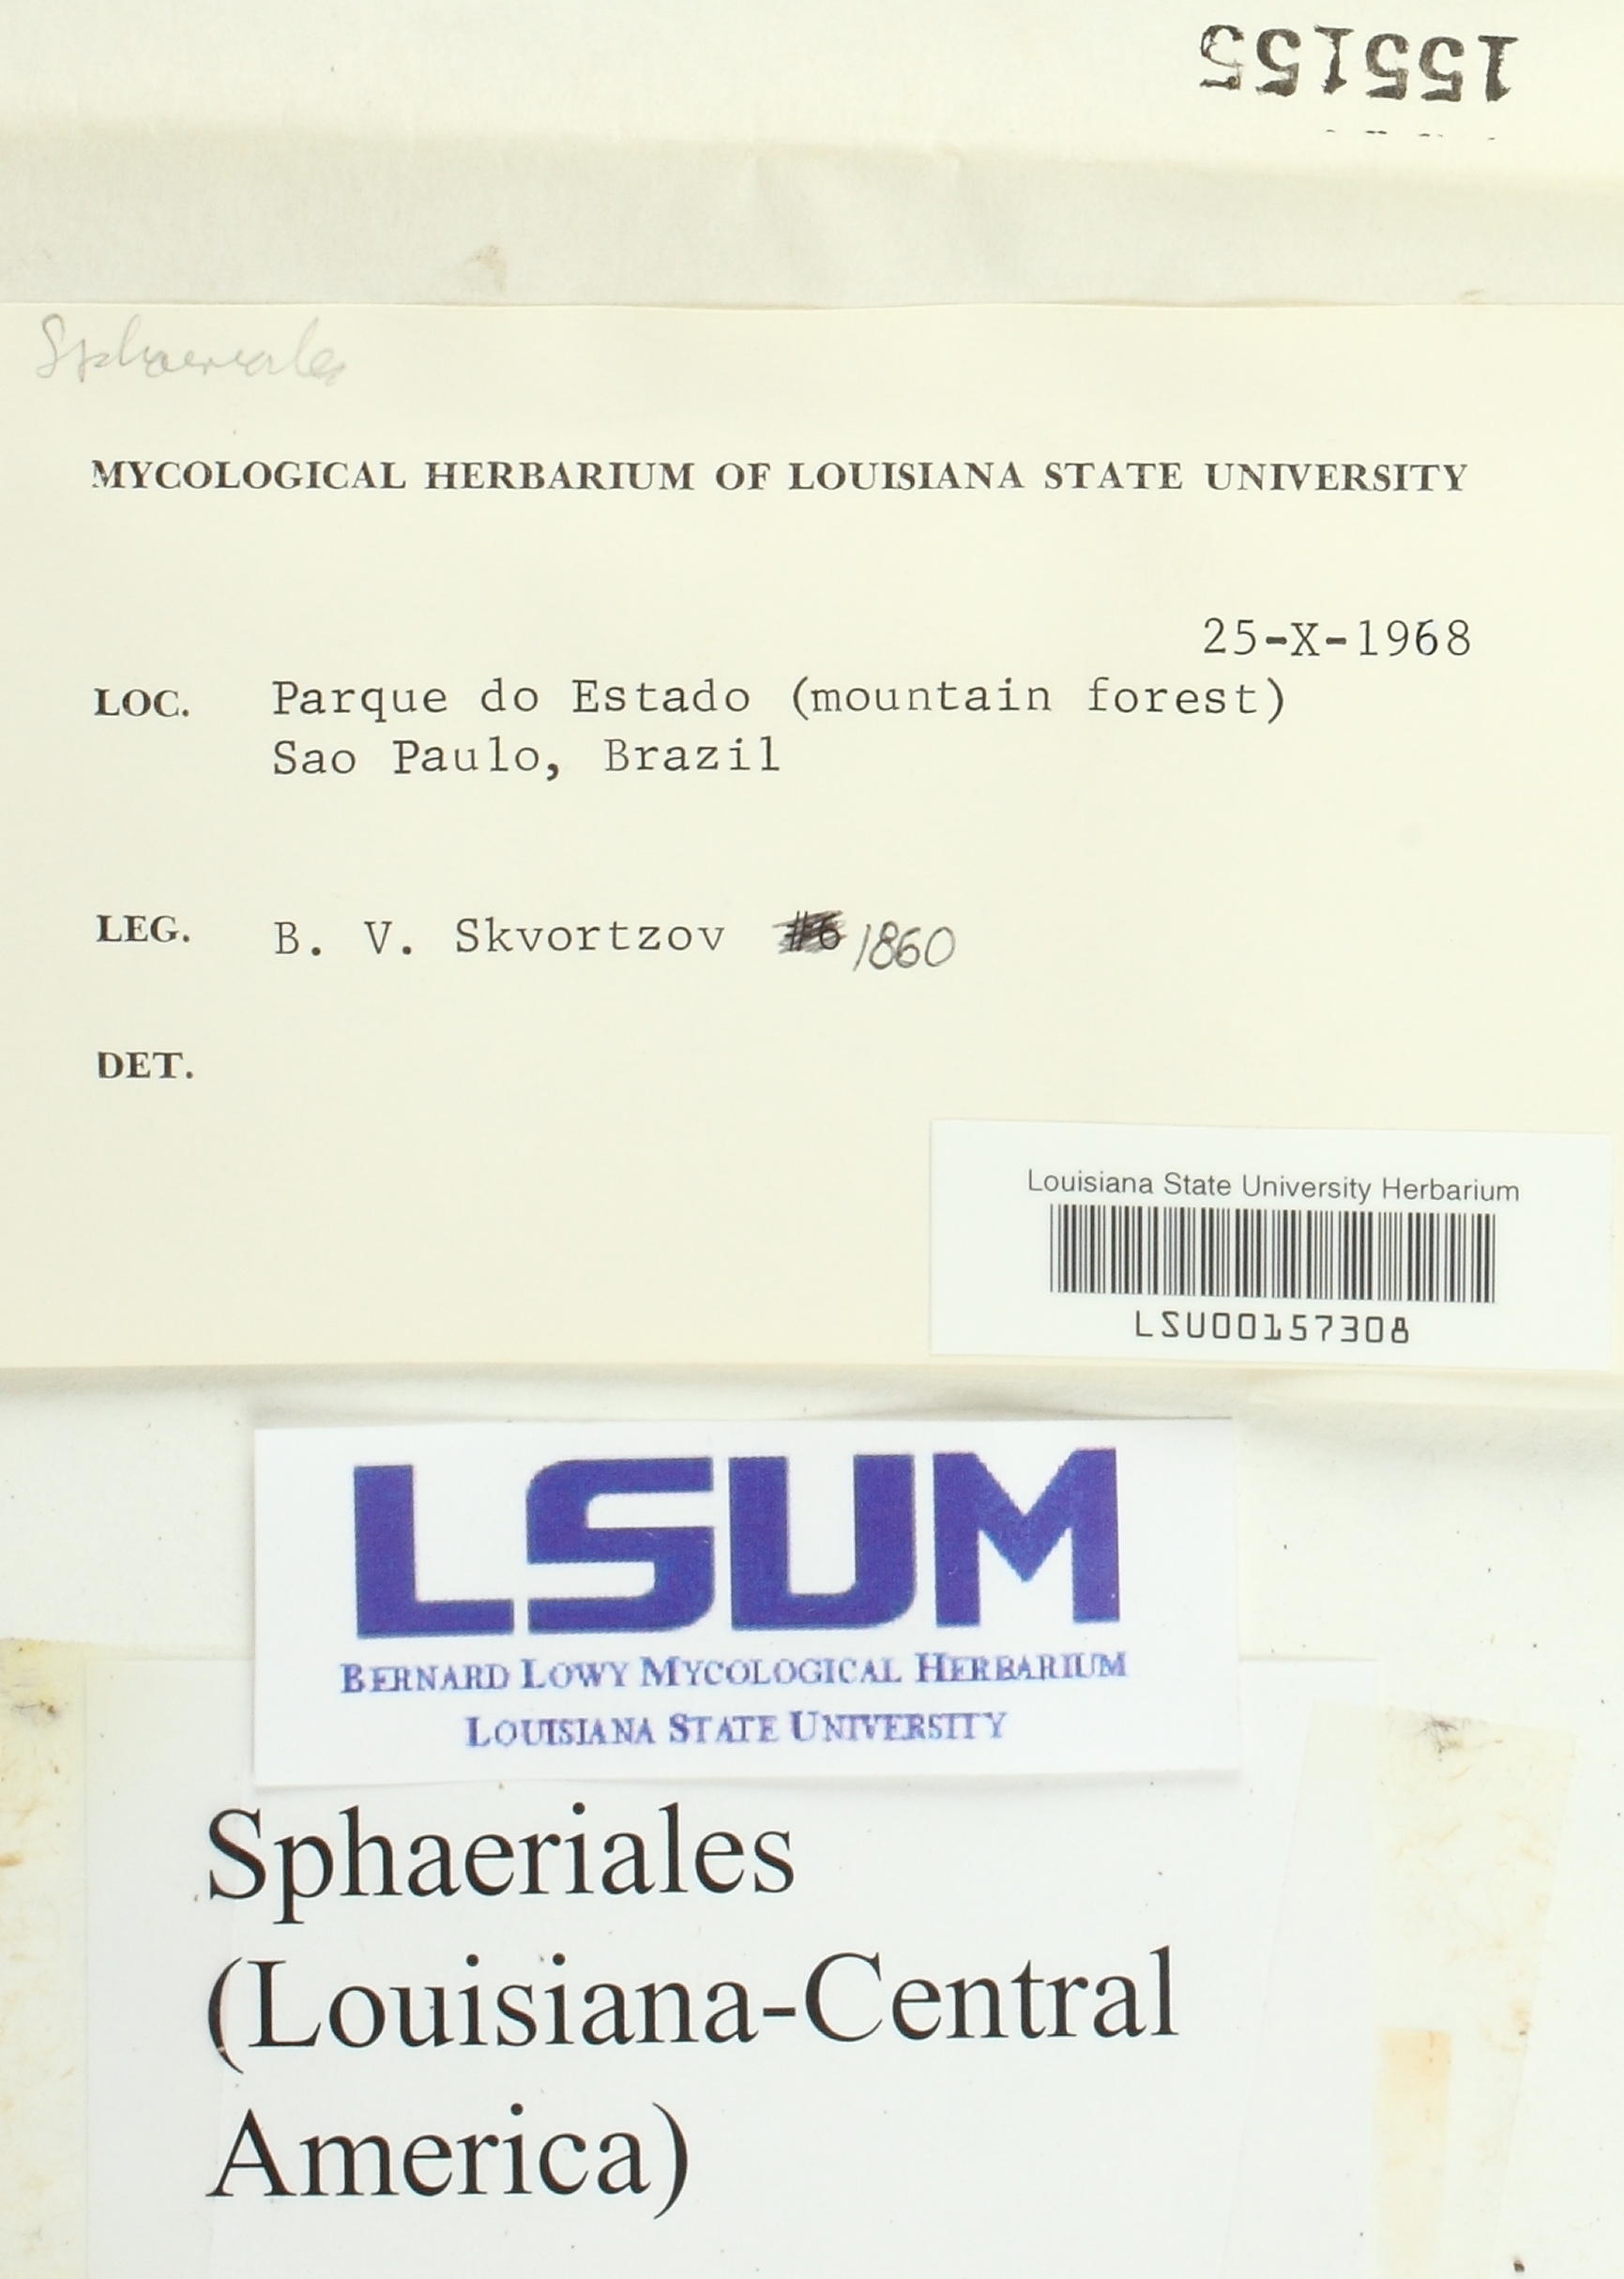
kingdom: Fungi
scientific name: Fungi
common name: Fungi
